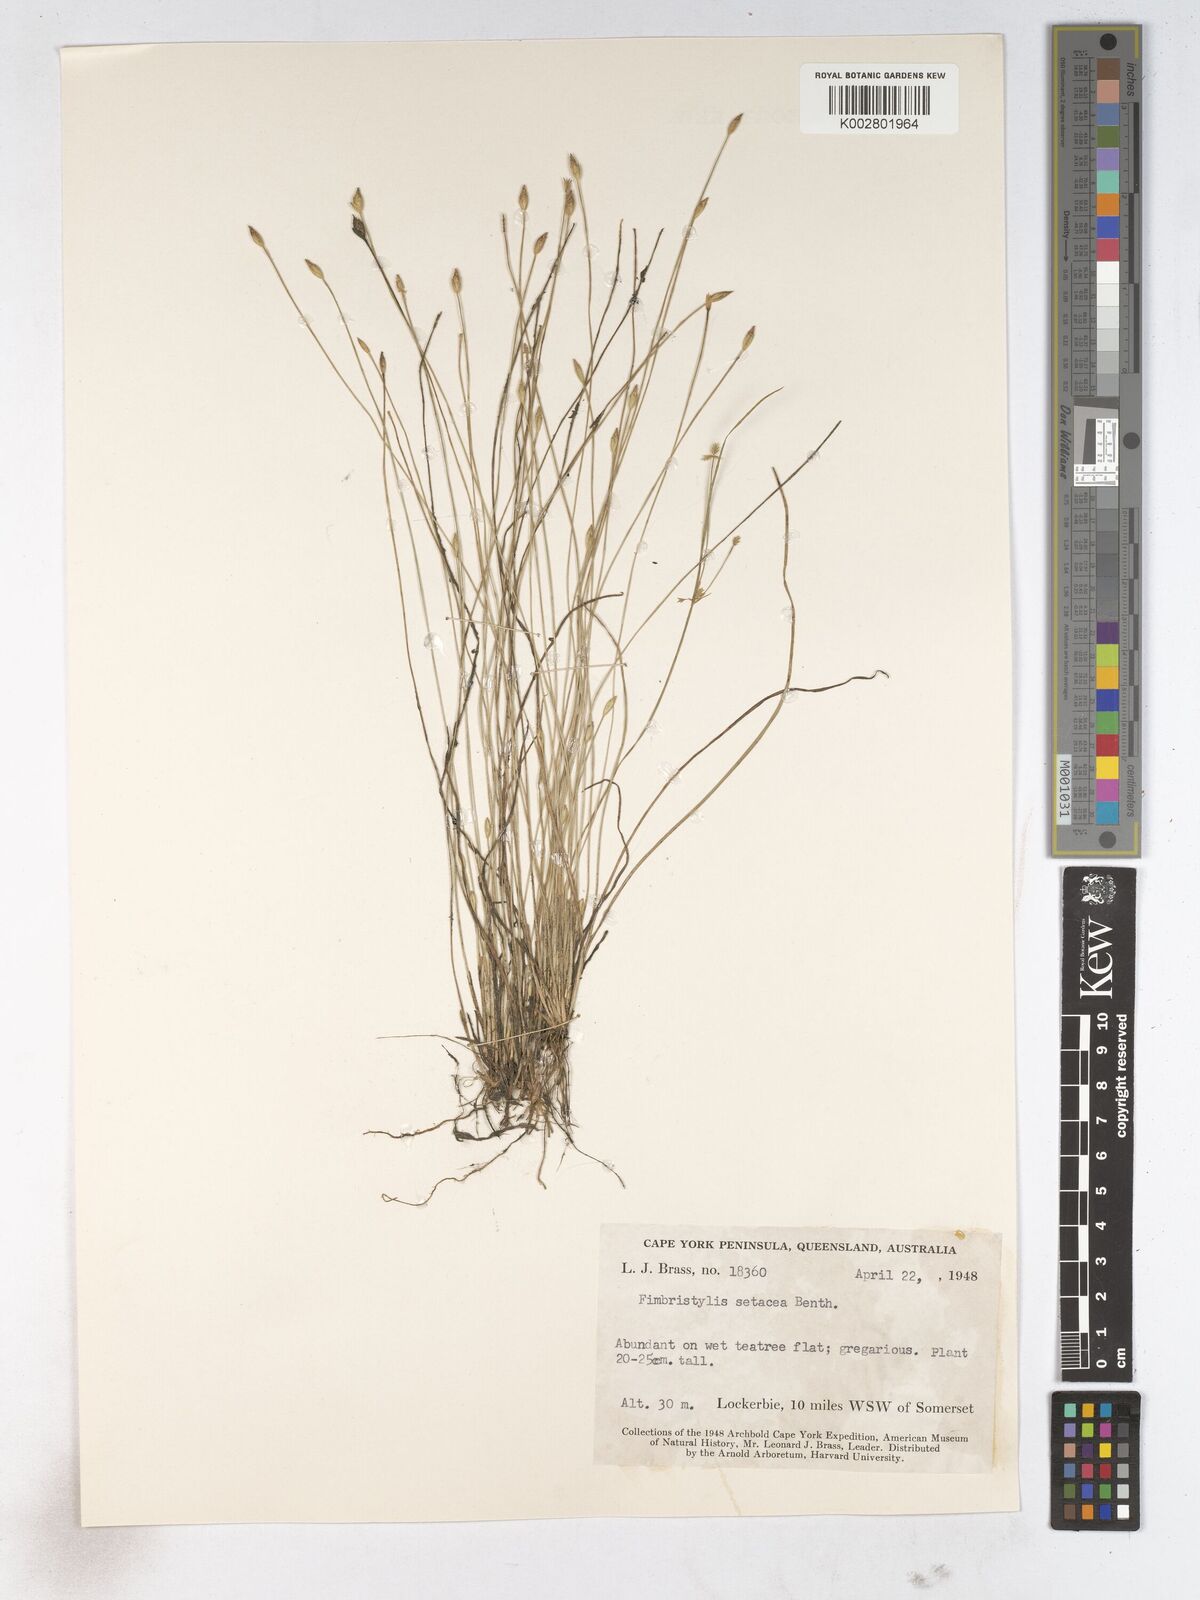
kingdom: Plantae
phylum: Tracheophyta
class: Liliopsida
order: Poales
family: Cyperaceae
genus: Fimbristylis
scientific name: Fimbristylis acicularis
